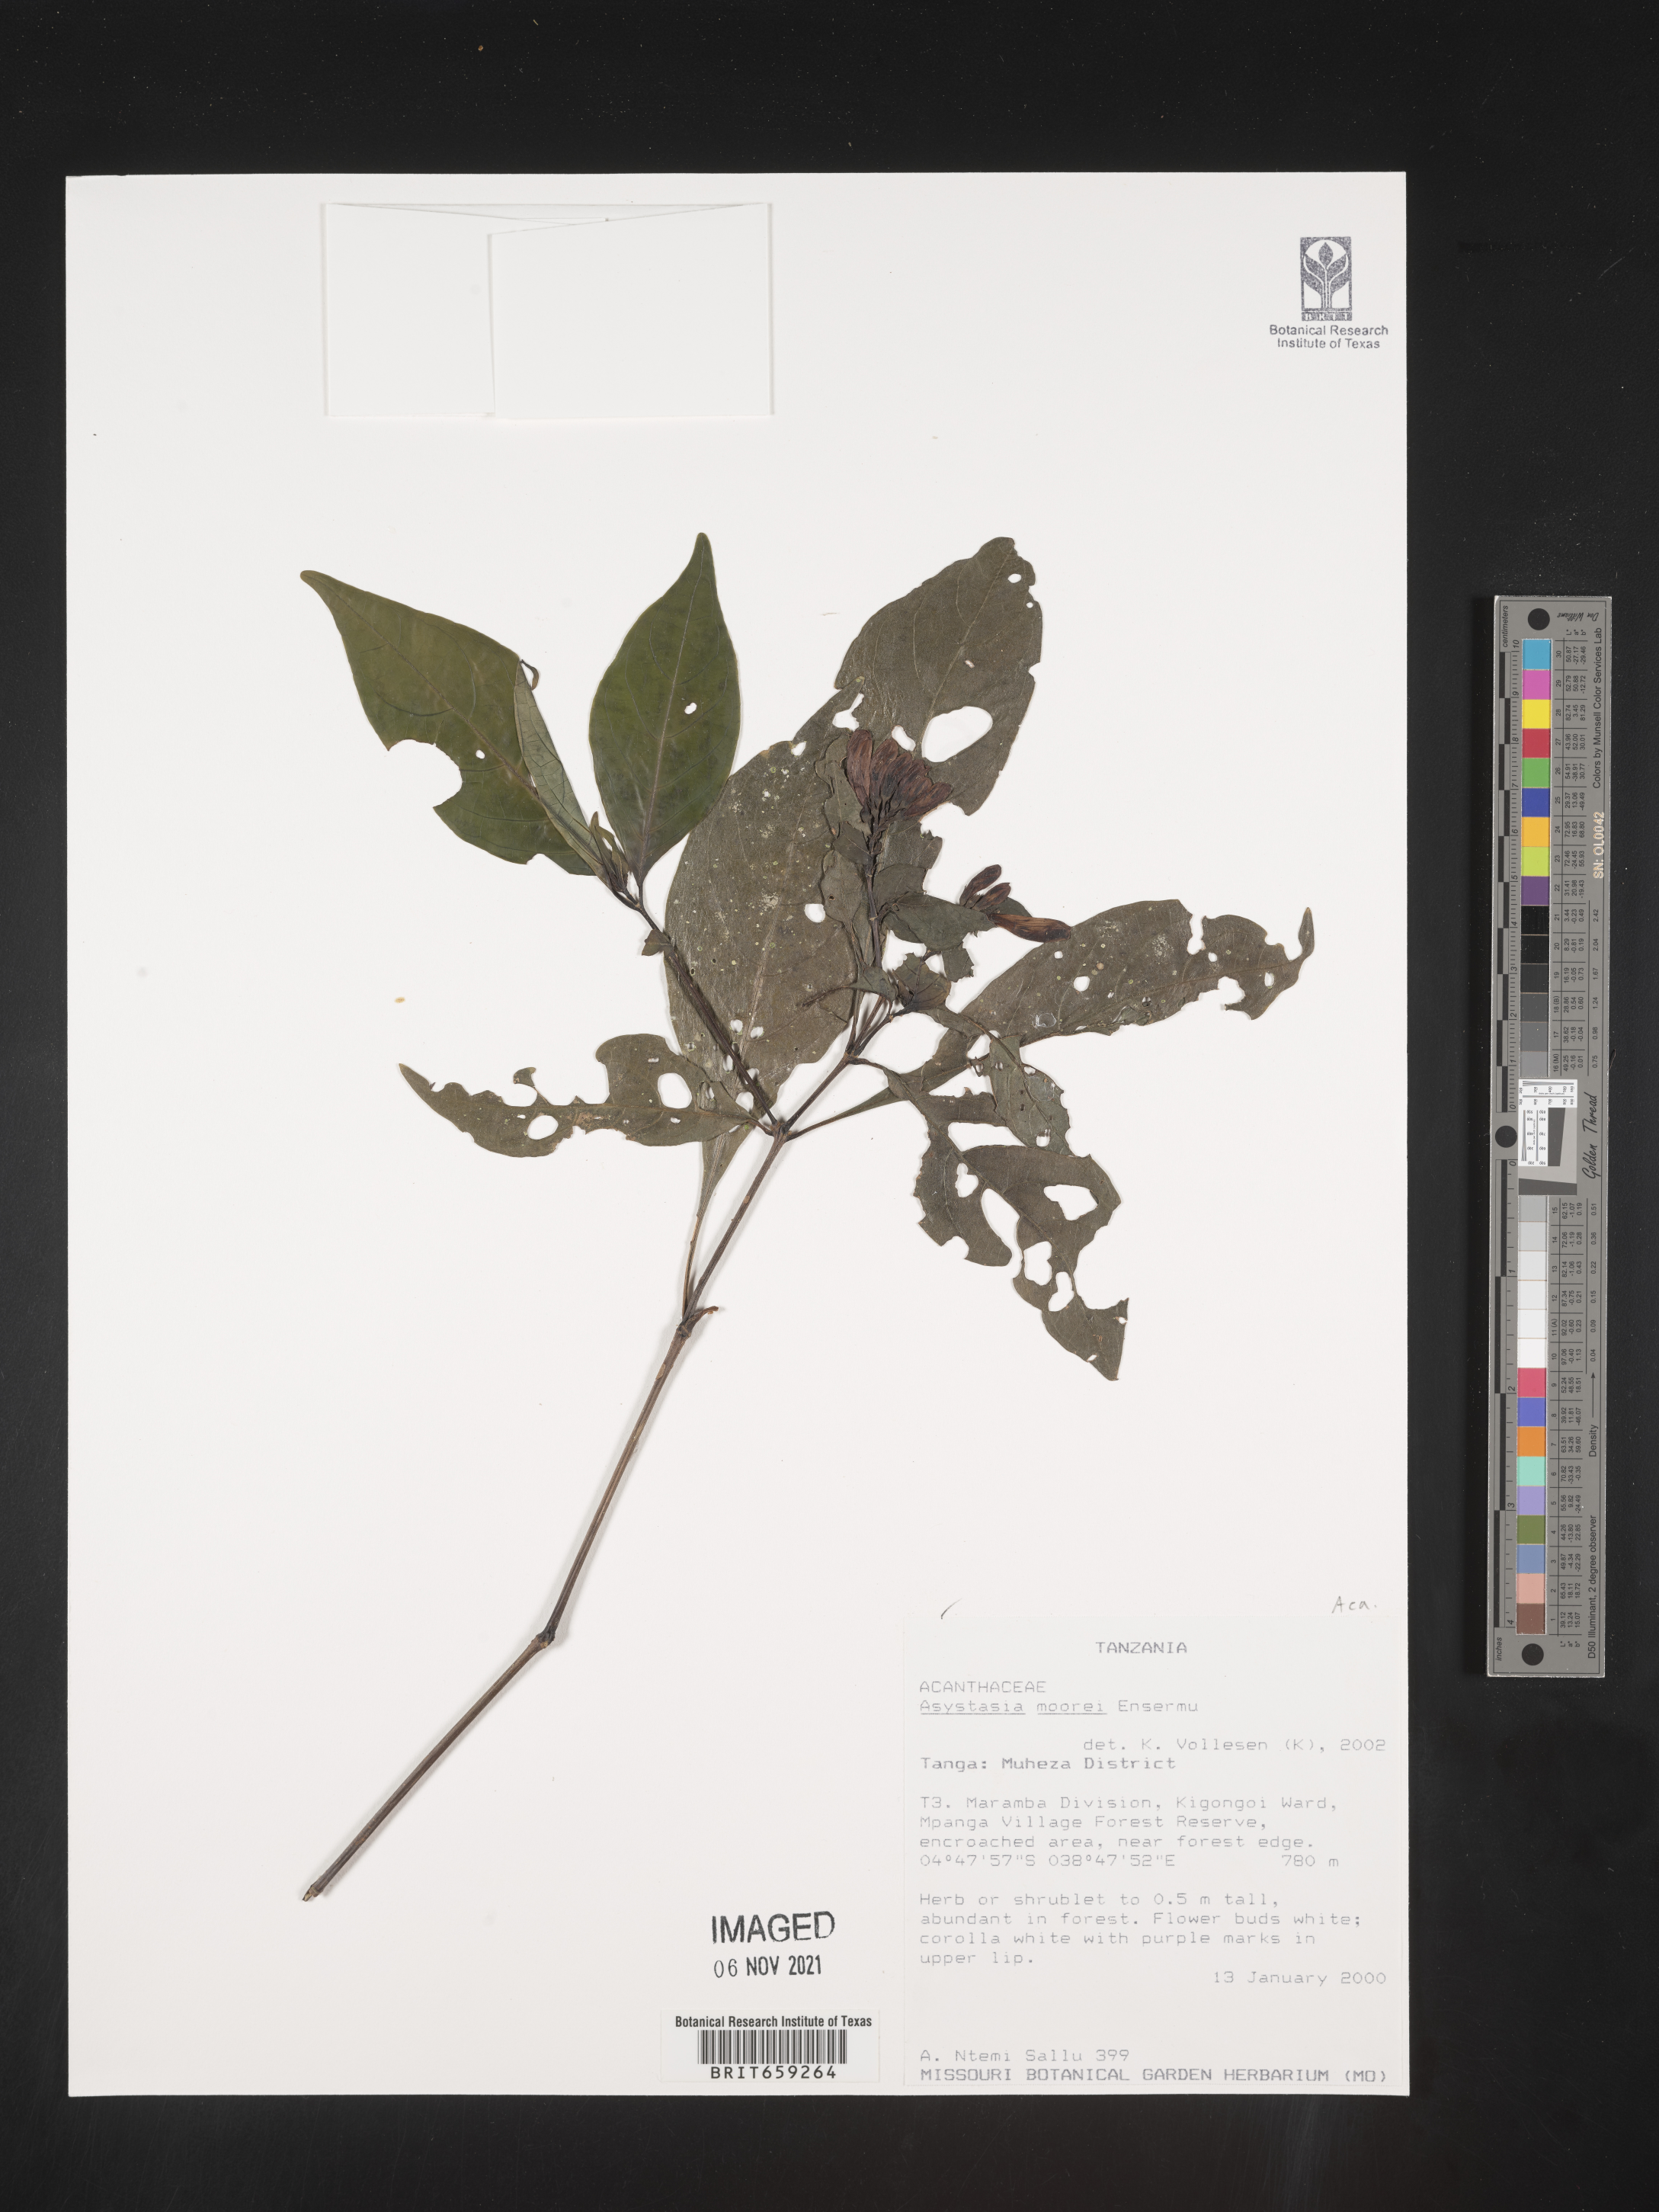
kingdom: Plantae
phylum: Tracheophyta
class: Magnoliopsida
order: Lamiales
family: Acanthaceae
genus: Asystasia
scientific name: Asystasia moorei
